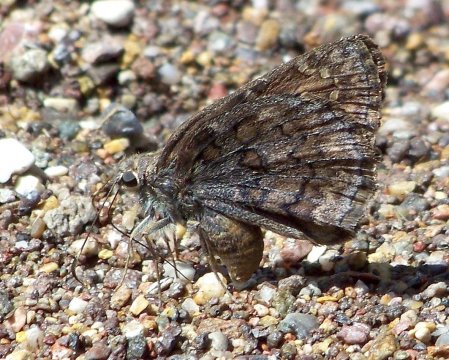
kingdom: Animalia
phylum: Arthropoda
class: Insecta
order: Lepidoptera
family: Hesperiidae
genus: Thorybes
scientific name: Thorybes valeriana
